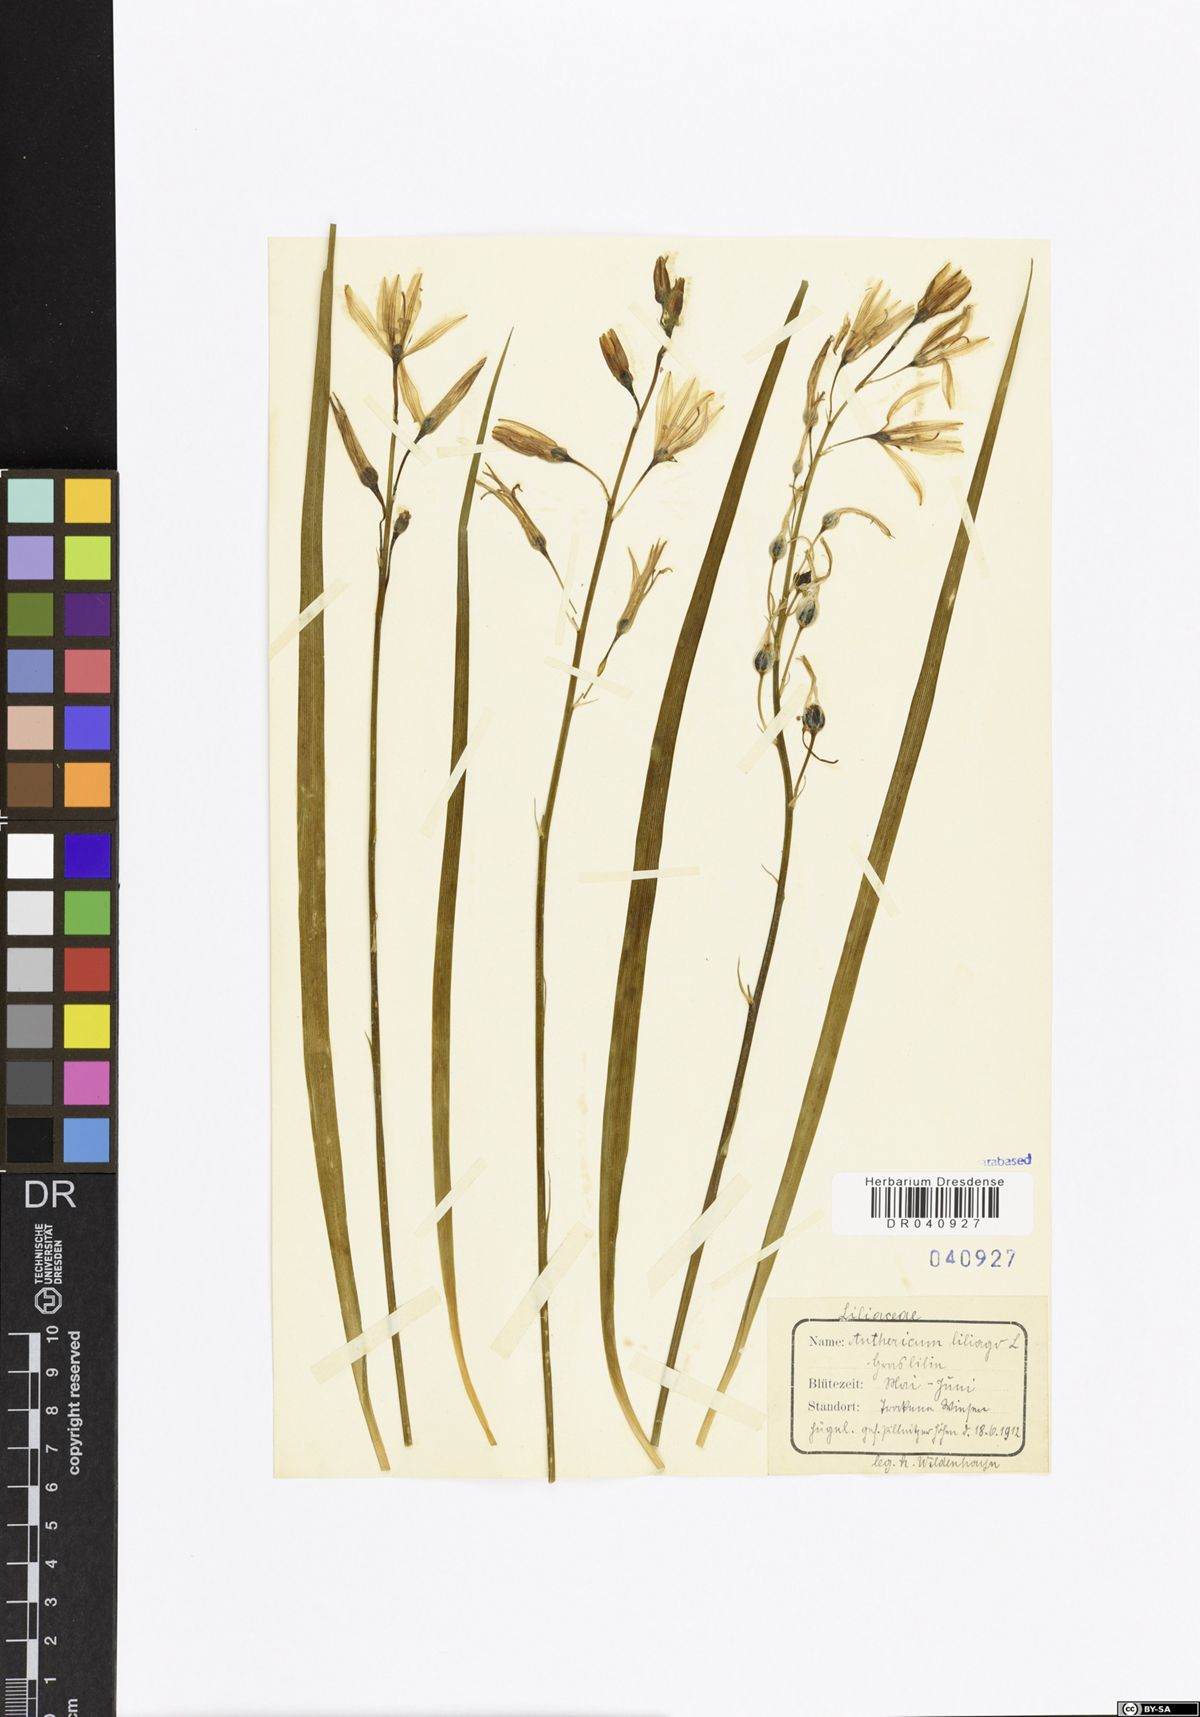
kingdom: Plantae
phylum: Tracheophyta
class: Liliopsida
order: Asparagales
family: Asparagaceae
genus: Anthericum
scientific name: Anthericum liliago
